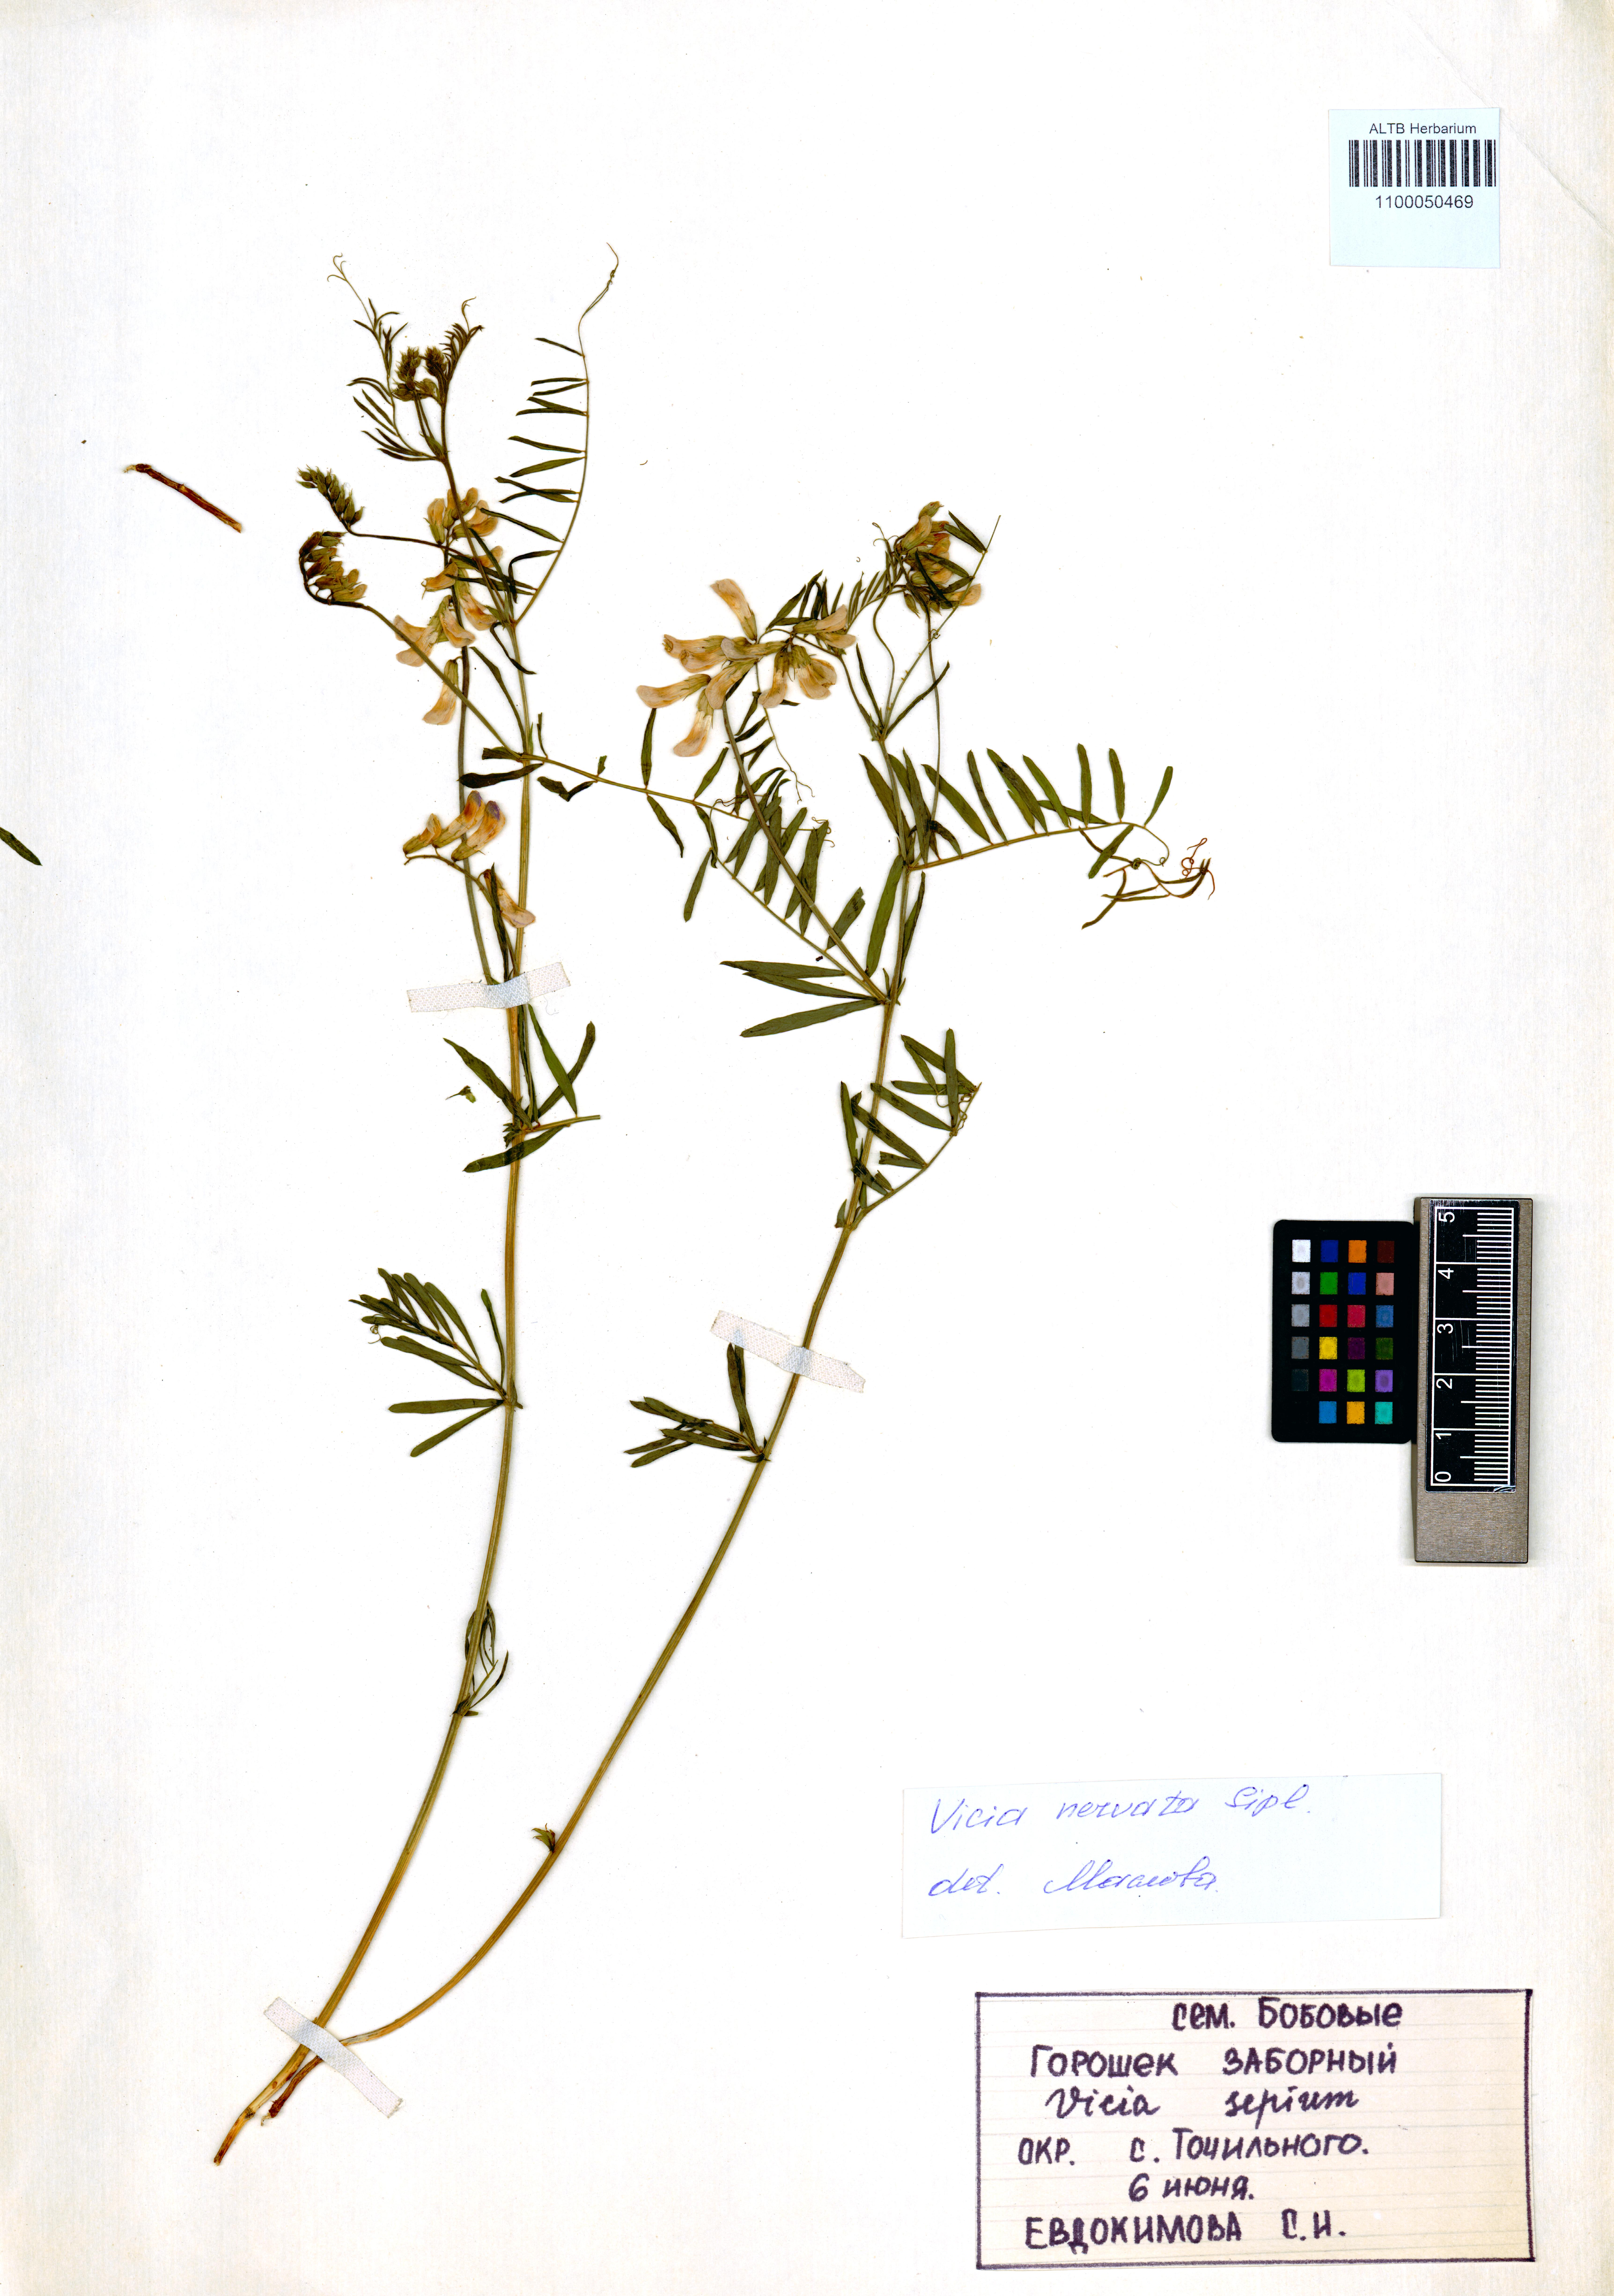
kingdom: Plantae
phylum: Tracheophyta
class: Magnoliopsida
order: Fabales
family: Fabaceae
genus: Vicia
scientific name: Vicia multicaulis
